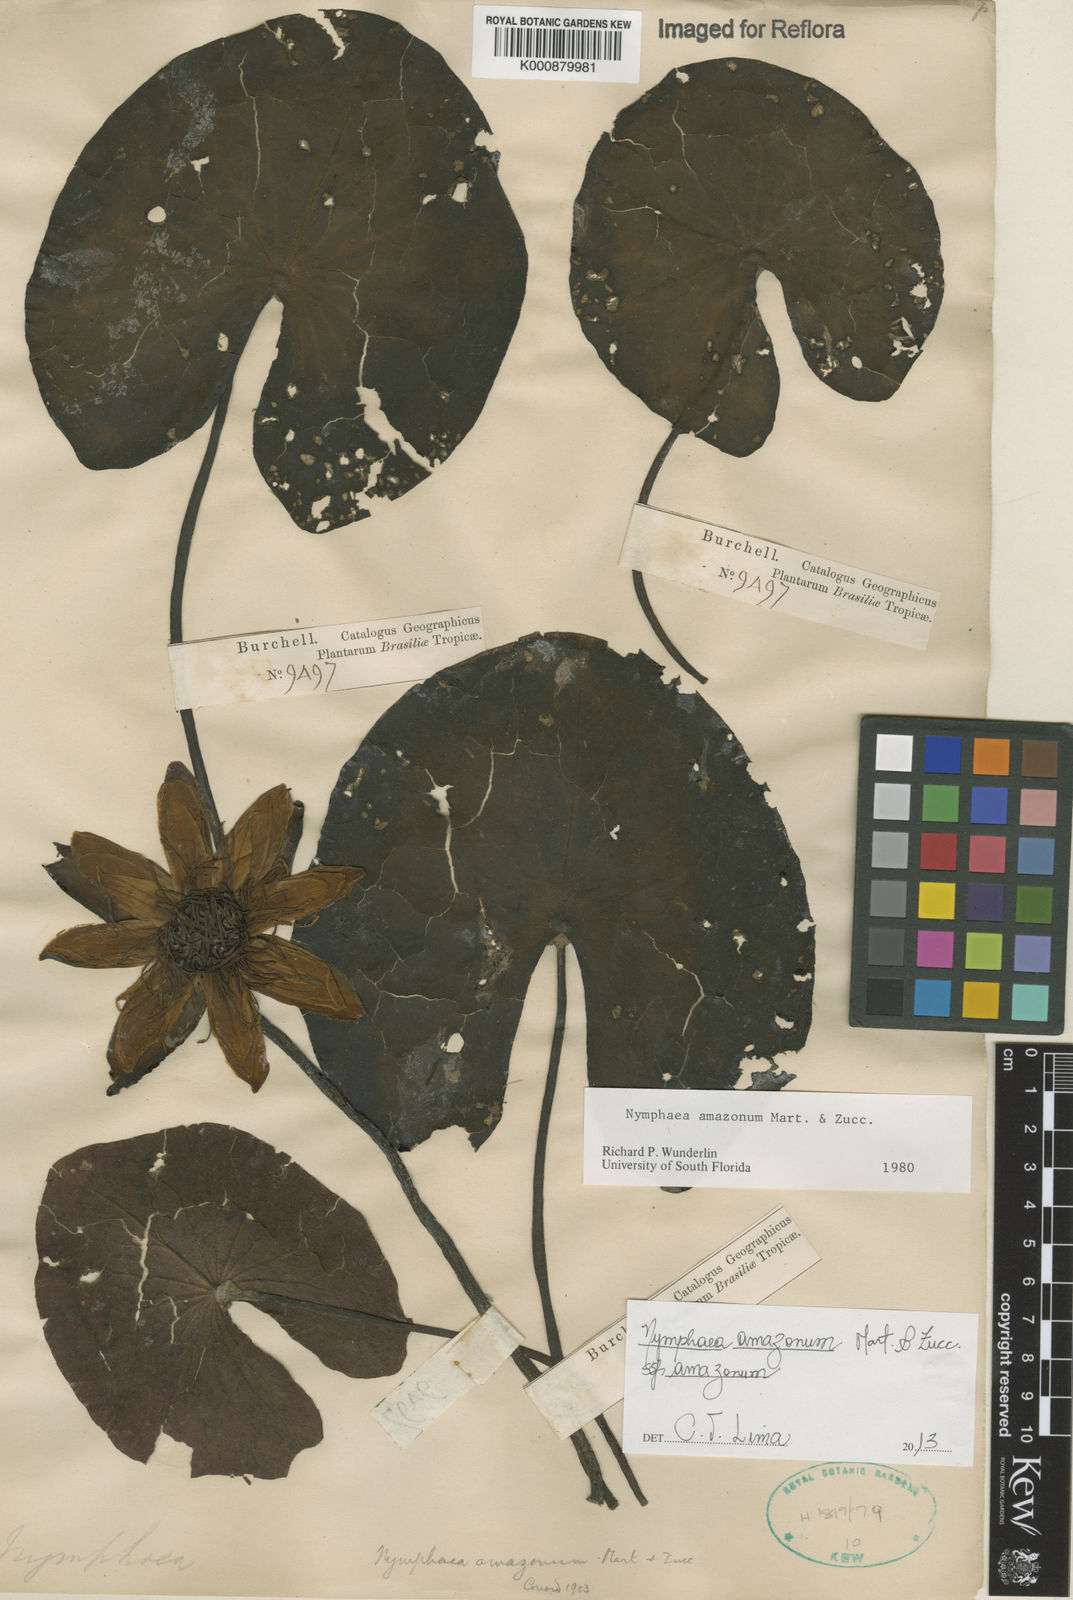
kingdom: Plantae
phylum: Tracheophyta
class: Magnoliopsida
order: Nymphaeales
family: Nymphaeaceae
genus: Nymphaea
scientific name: Nymphaea amazonum
